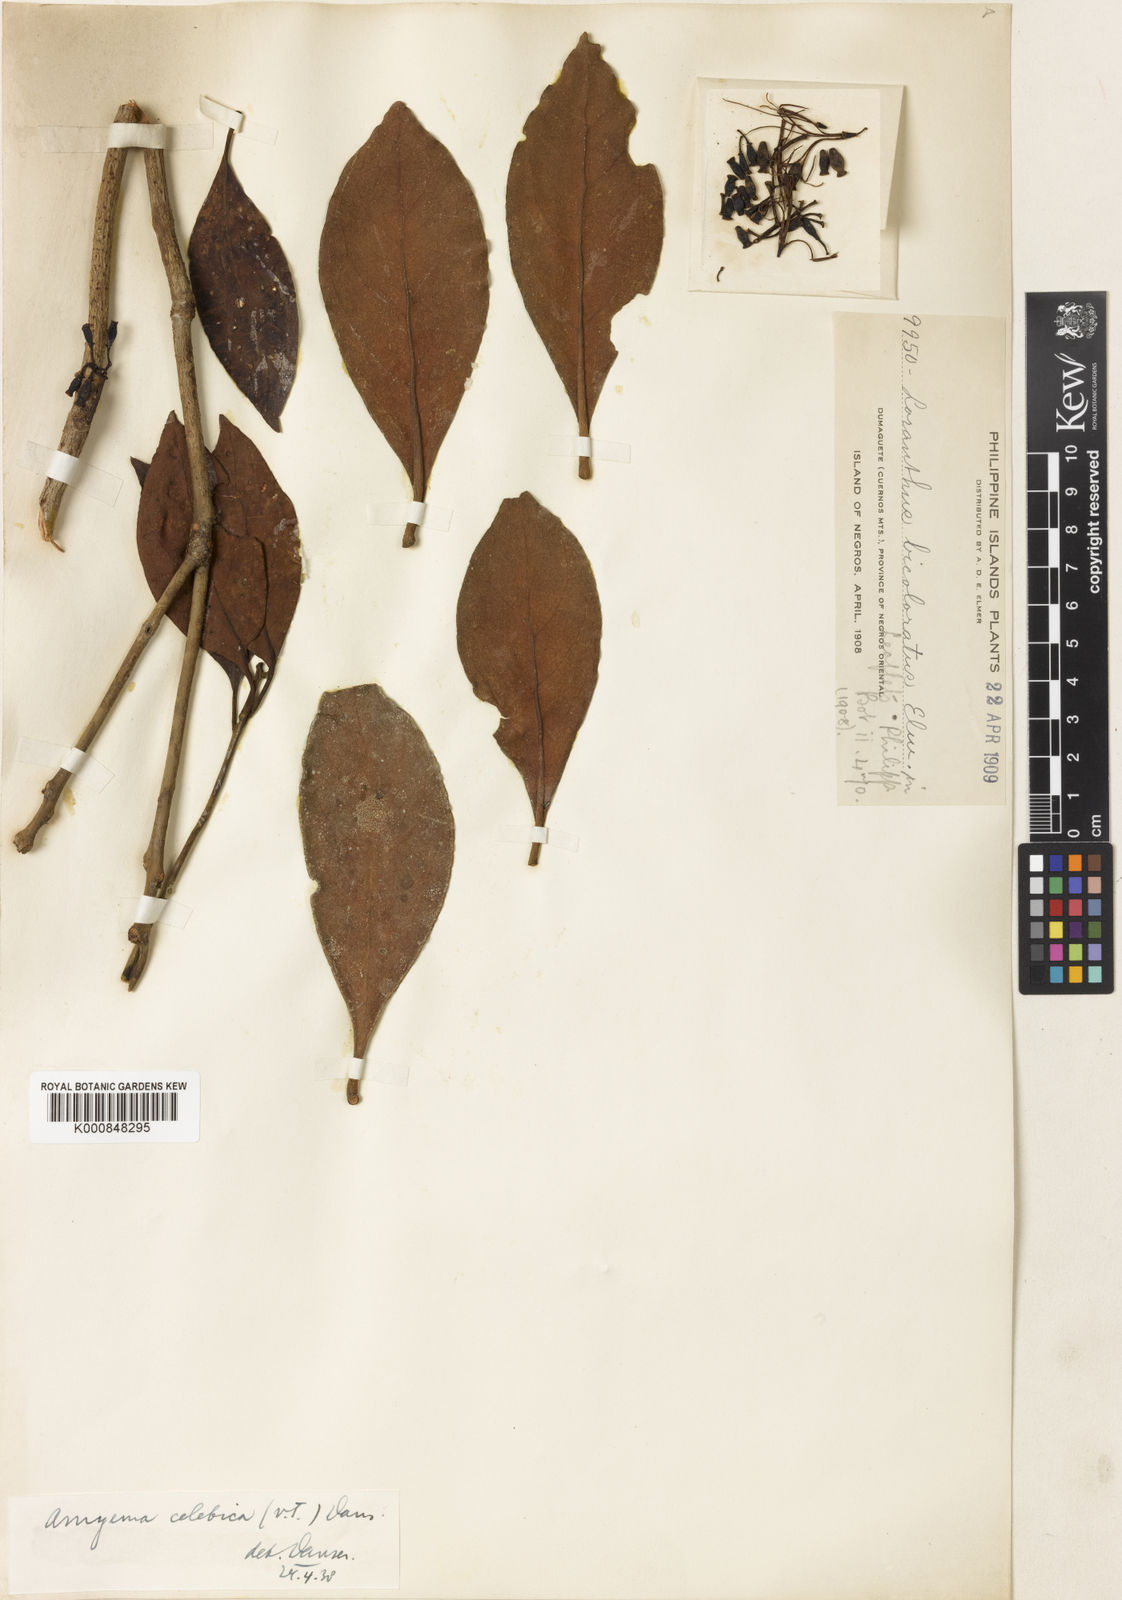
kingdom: Plantae
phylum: Tracheophyta
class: Magnoliopsida
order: Santalales
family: Loranthaceae
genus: Amyema
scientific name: Amyema celebica
